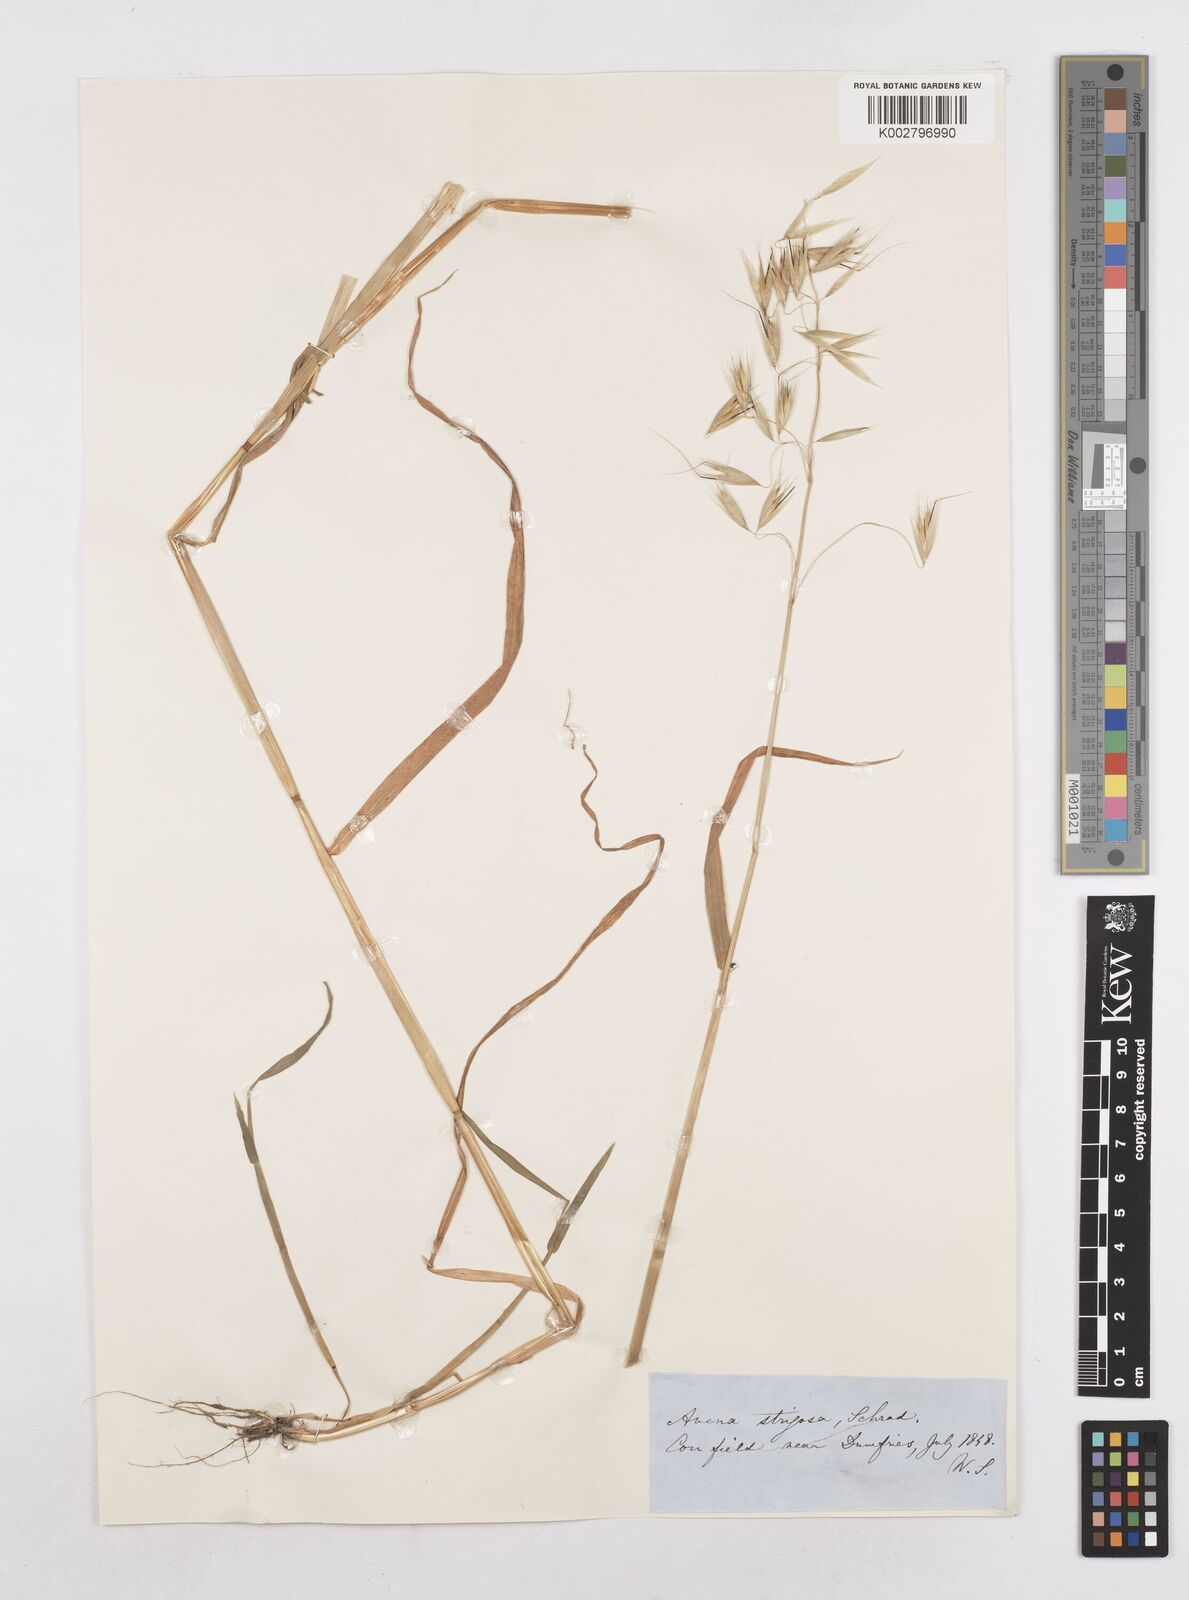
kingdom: Plantae
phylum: Tracheophyta
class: Liliopsida
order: Poales
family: Poaceae
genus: Avena
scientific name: Avena strigosa
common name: Bristle oat
